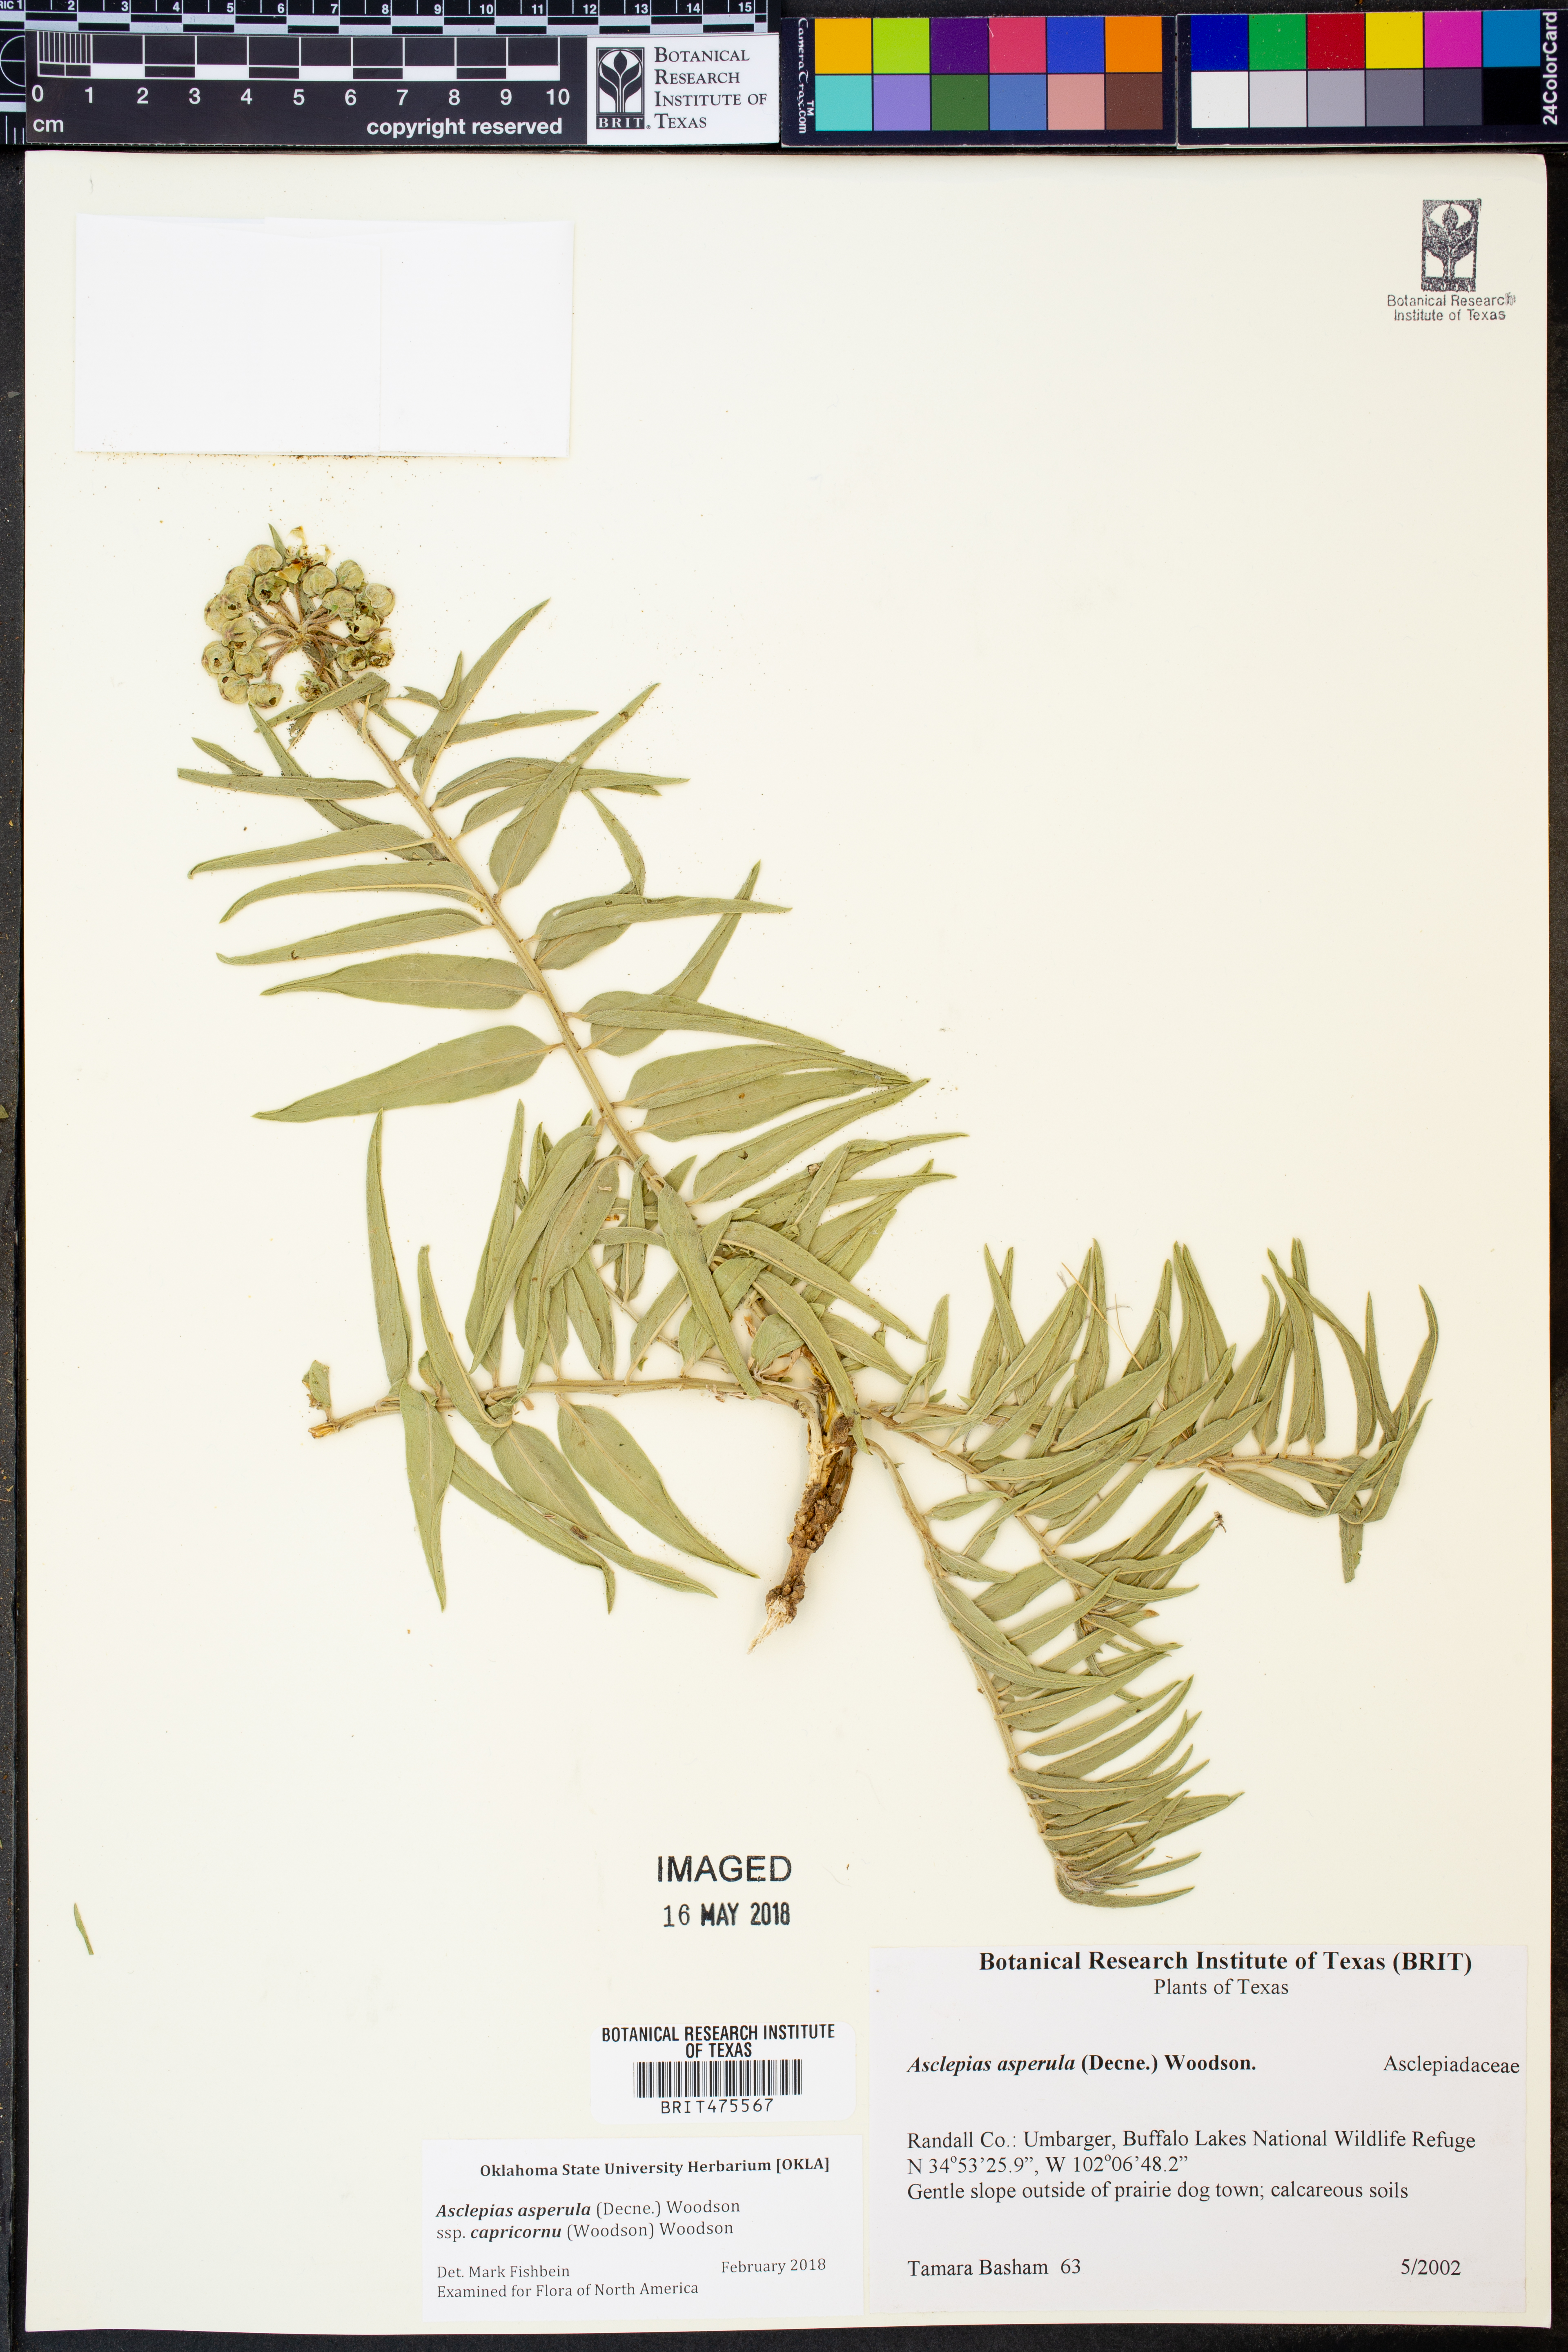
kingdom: Plantae
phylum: Tracheophyta
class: Magnoliopsida
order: Gentianales
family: Apocynaceae
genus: Asclepias
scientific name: Asclepias asperula
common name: Antelope horns
